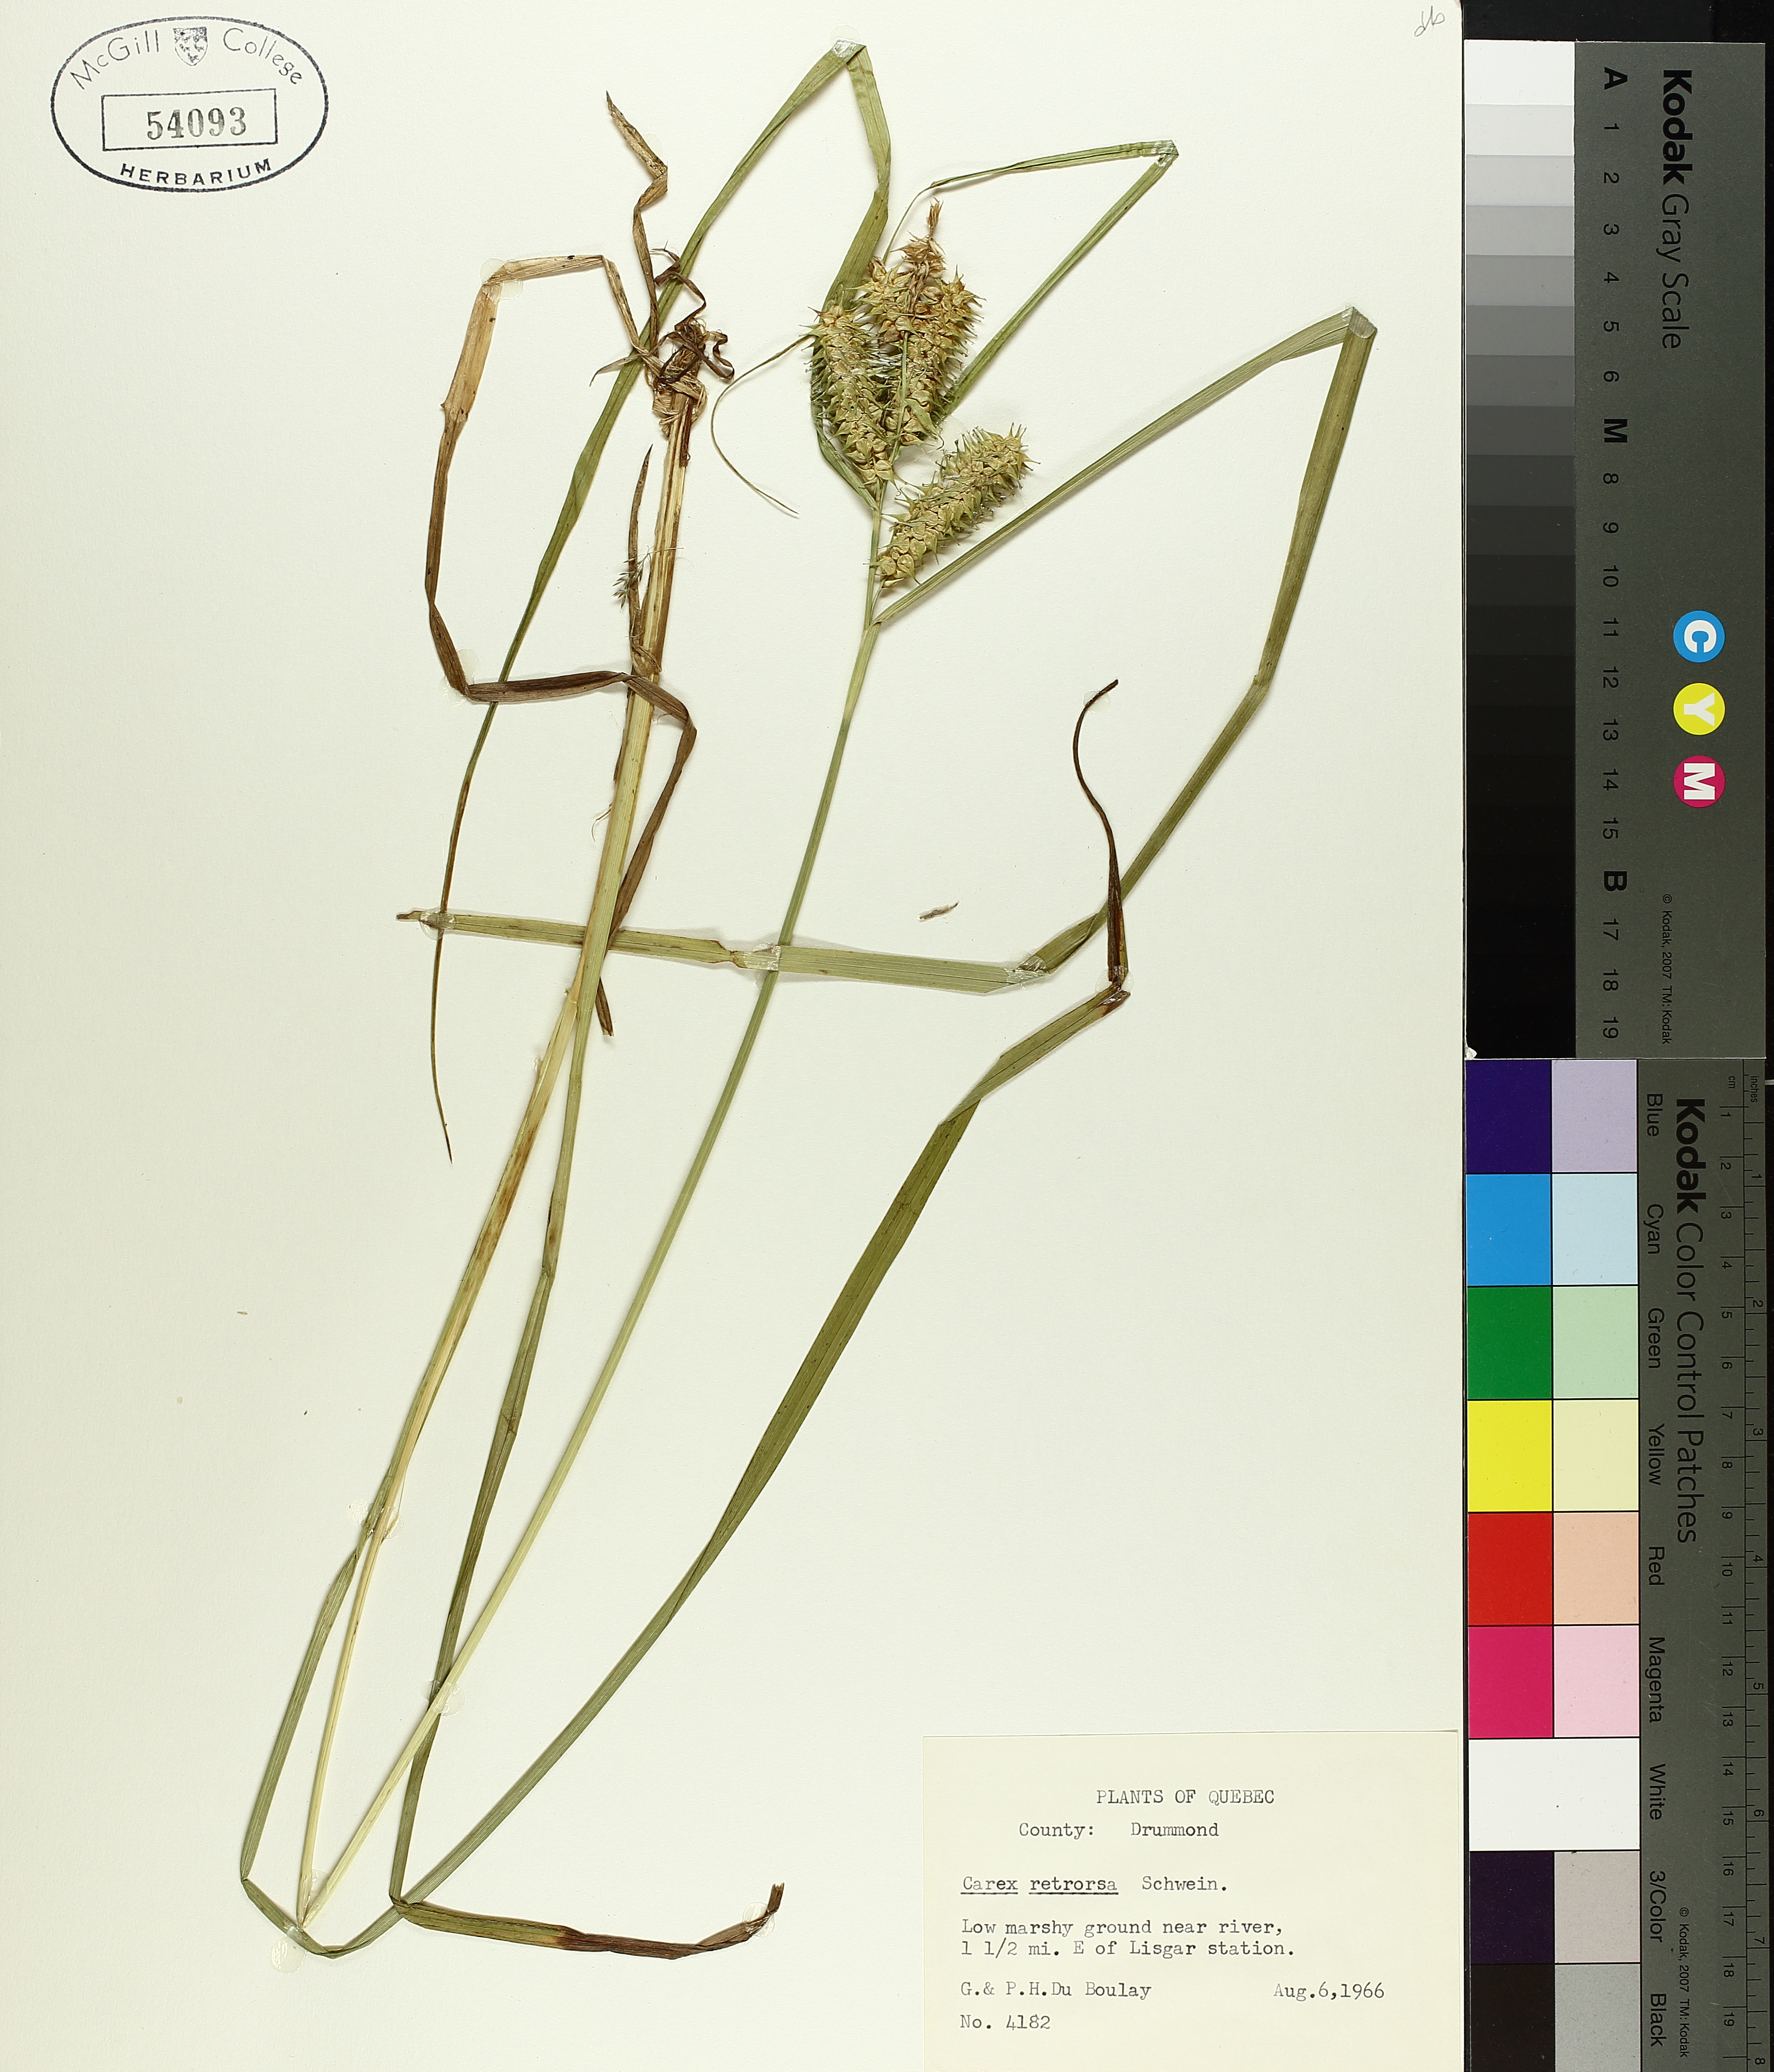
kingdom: Plantae
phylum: Tracheophyta
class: Liliopsida
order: Poales
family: Cyperaceae
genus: Carex
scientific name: Carex retrorsa
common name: Knot-sheath sedge
